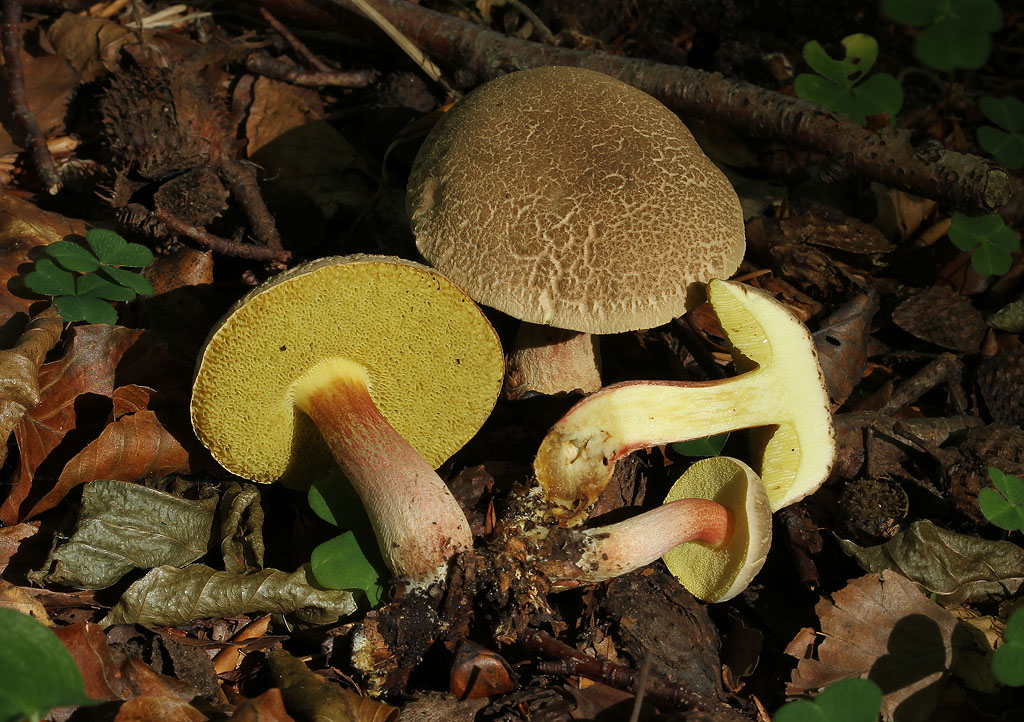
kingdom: Fungi
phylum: Basidiomycota
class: Agaricomycetes
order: Boletales
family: Boletaceae
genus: Xerocomellus
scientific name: Xerocomellus chrysenteron
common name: rødsprukken rørhat
